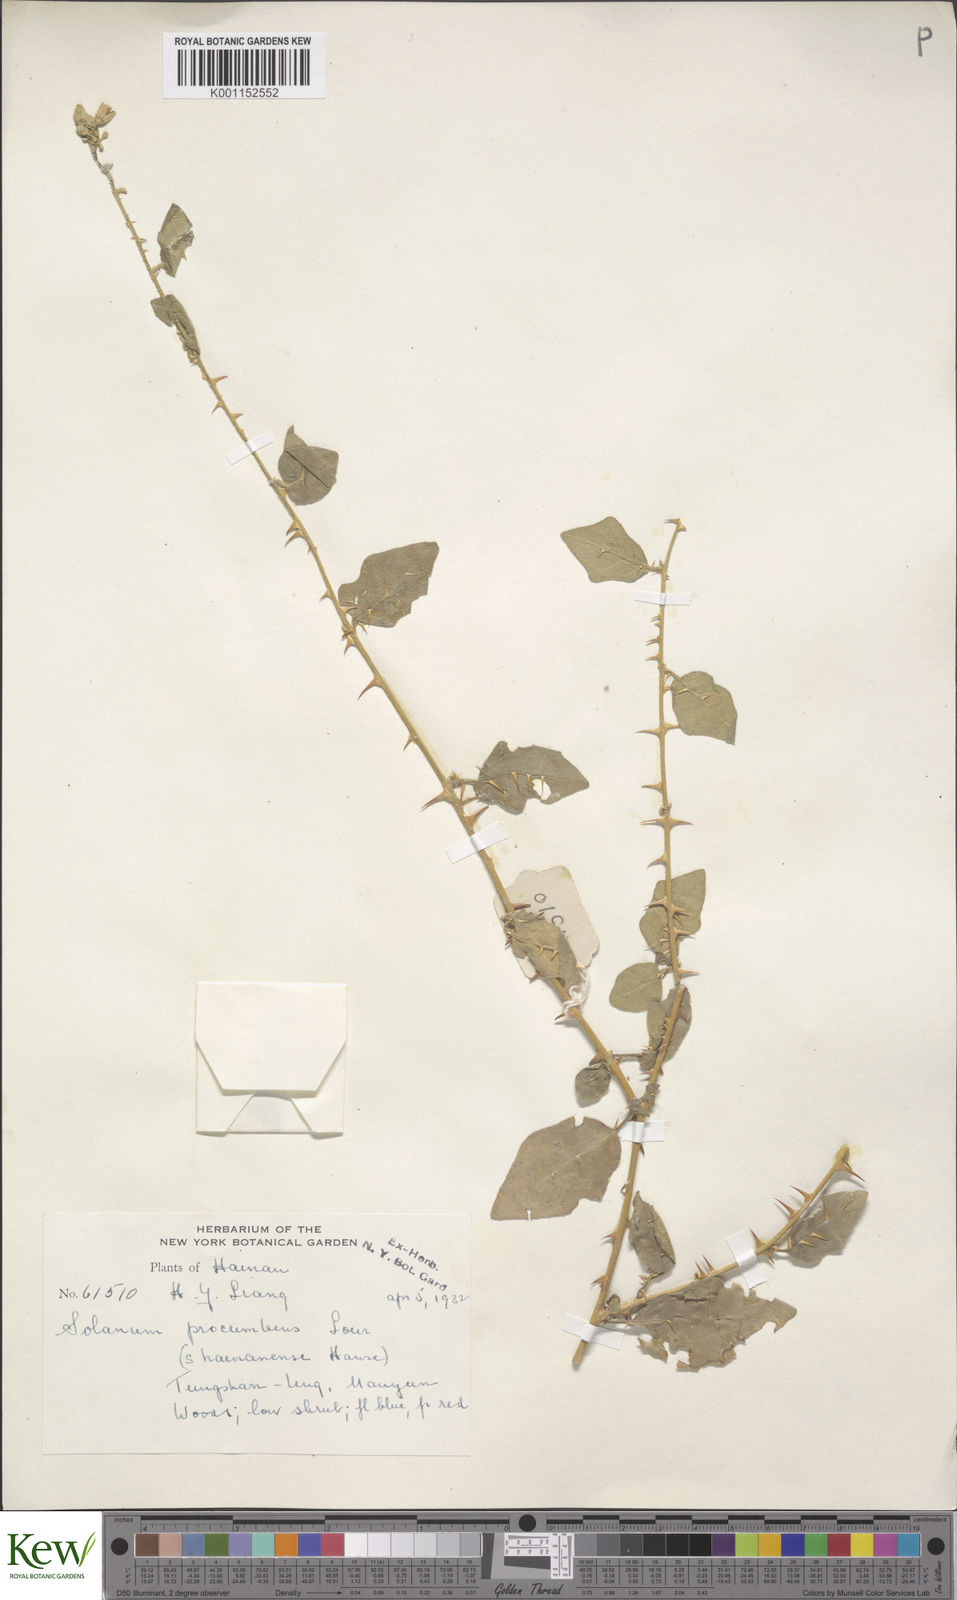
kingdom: Plantae
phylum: Tracheophyta
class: Magnoliopsida
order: Solanales
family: Solanaceae
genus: Solanum
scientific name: Solanum procumbens
